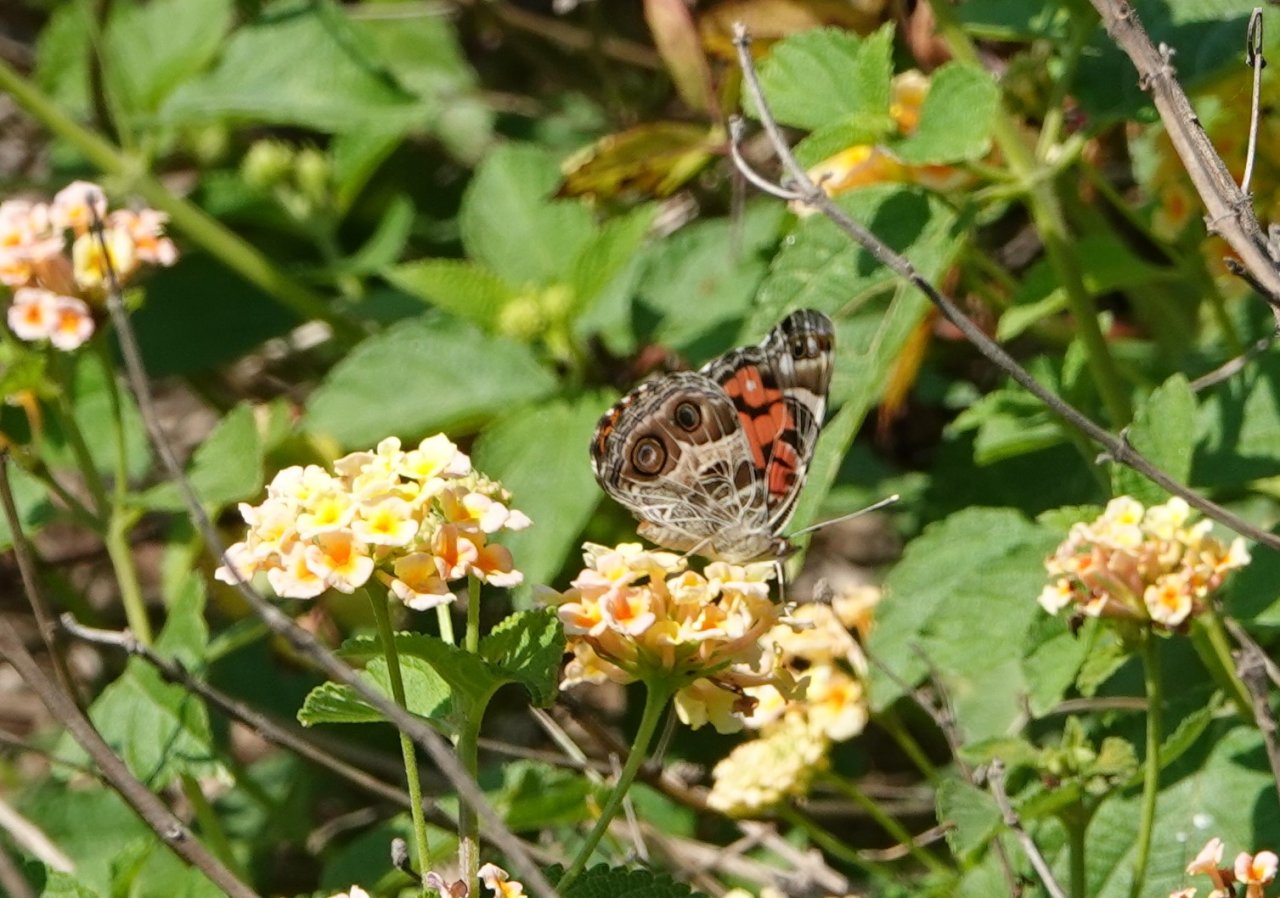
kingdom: Animalia
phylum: Arthropoda
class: Insecta
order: Lepidoptera
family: Nymphalidae
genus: Vanessa
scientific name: Vanessa virginiensis
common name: American Lady
